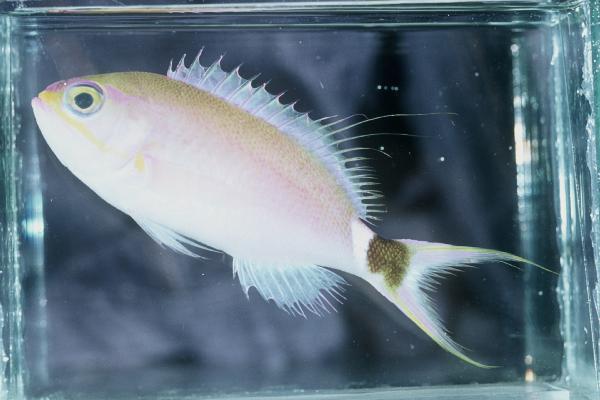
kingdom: Animalia
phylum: Chordata
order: Perciformes
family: Serranidae
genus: Odontanthias
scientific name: Odontanthias caudicinctus
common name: Blackblotch swallowtail
